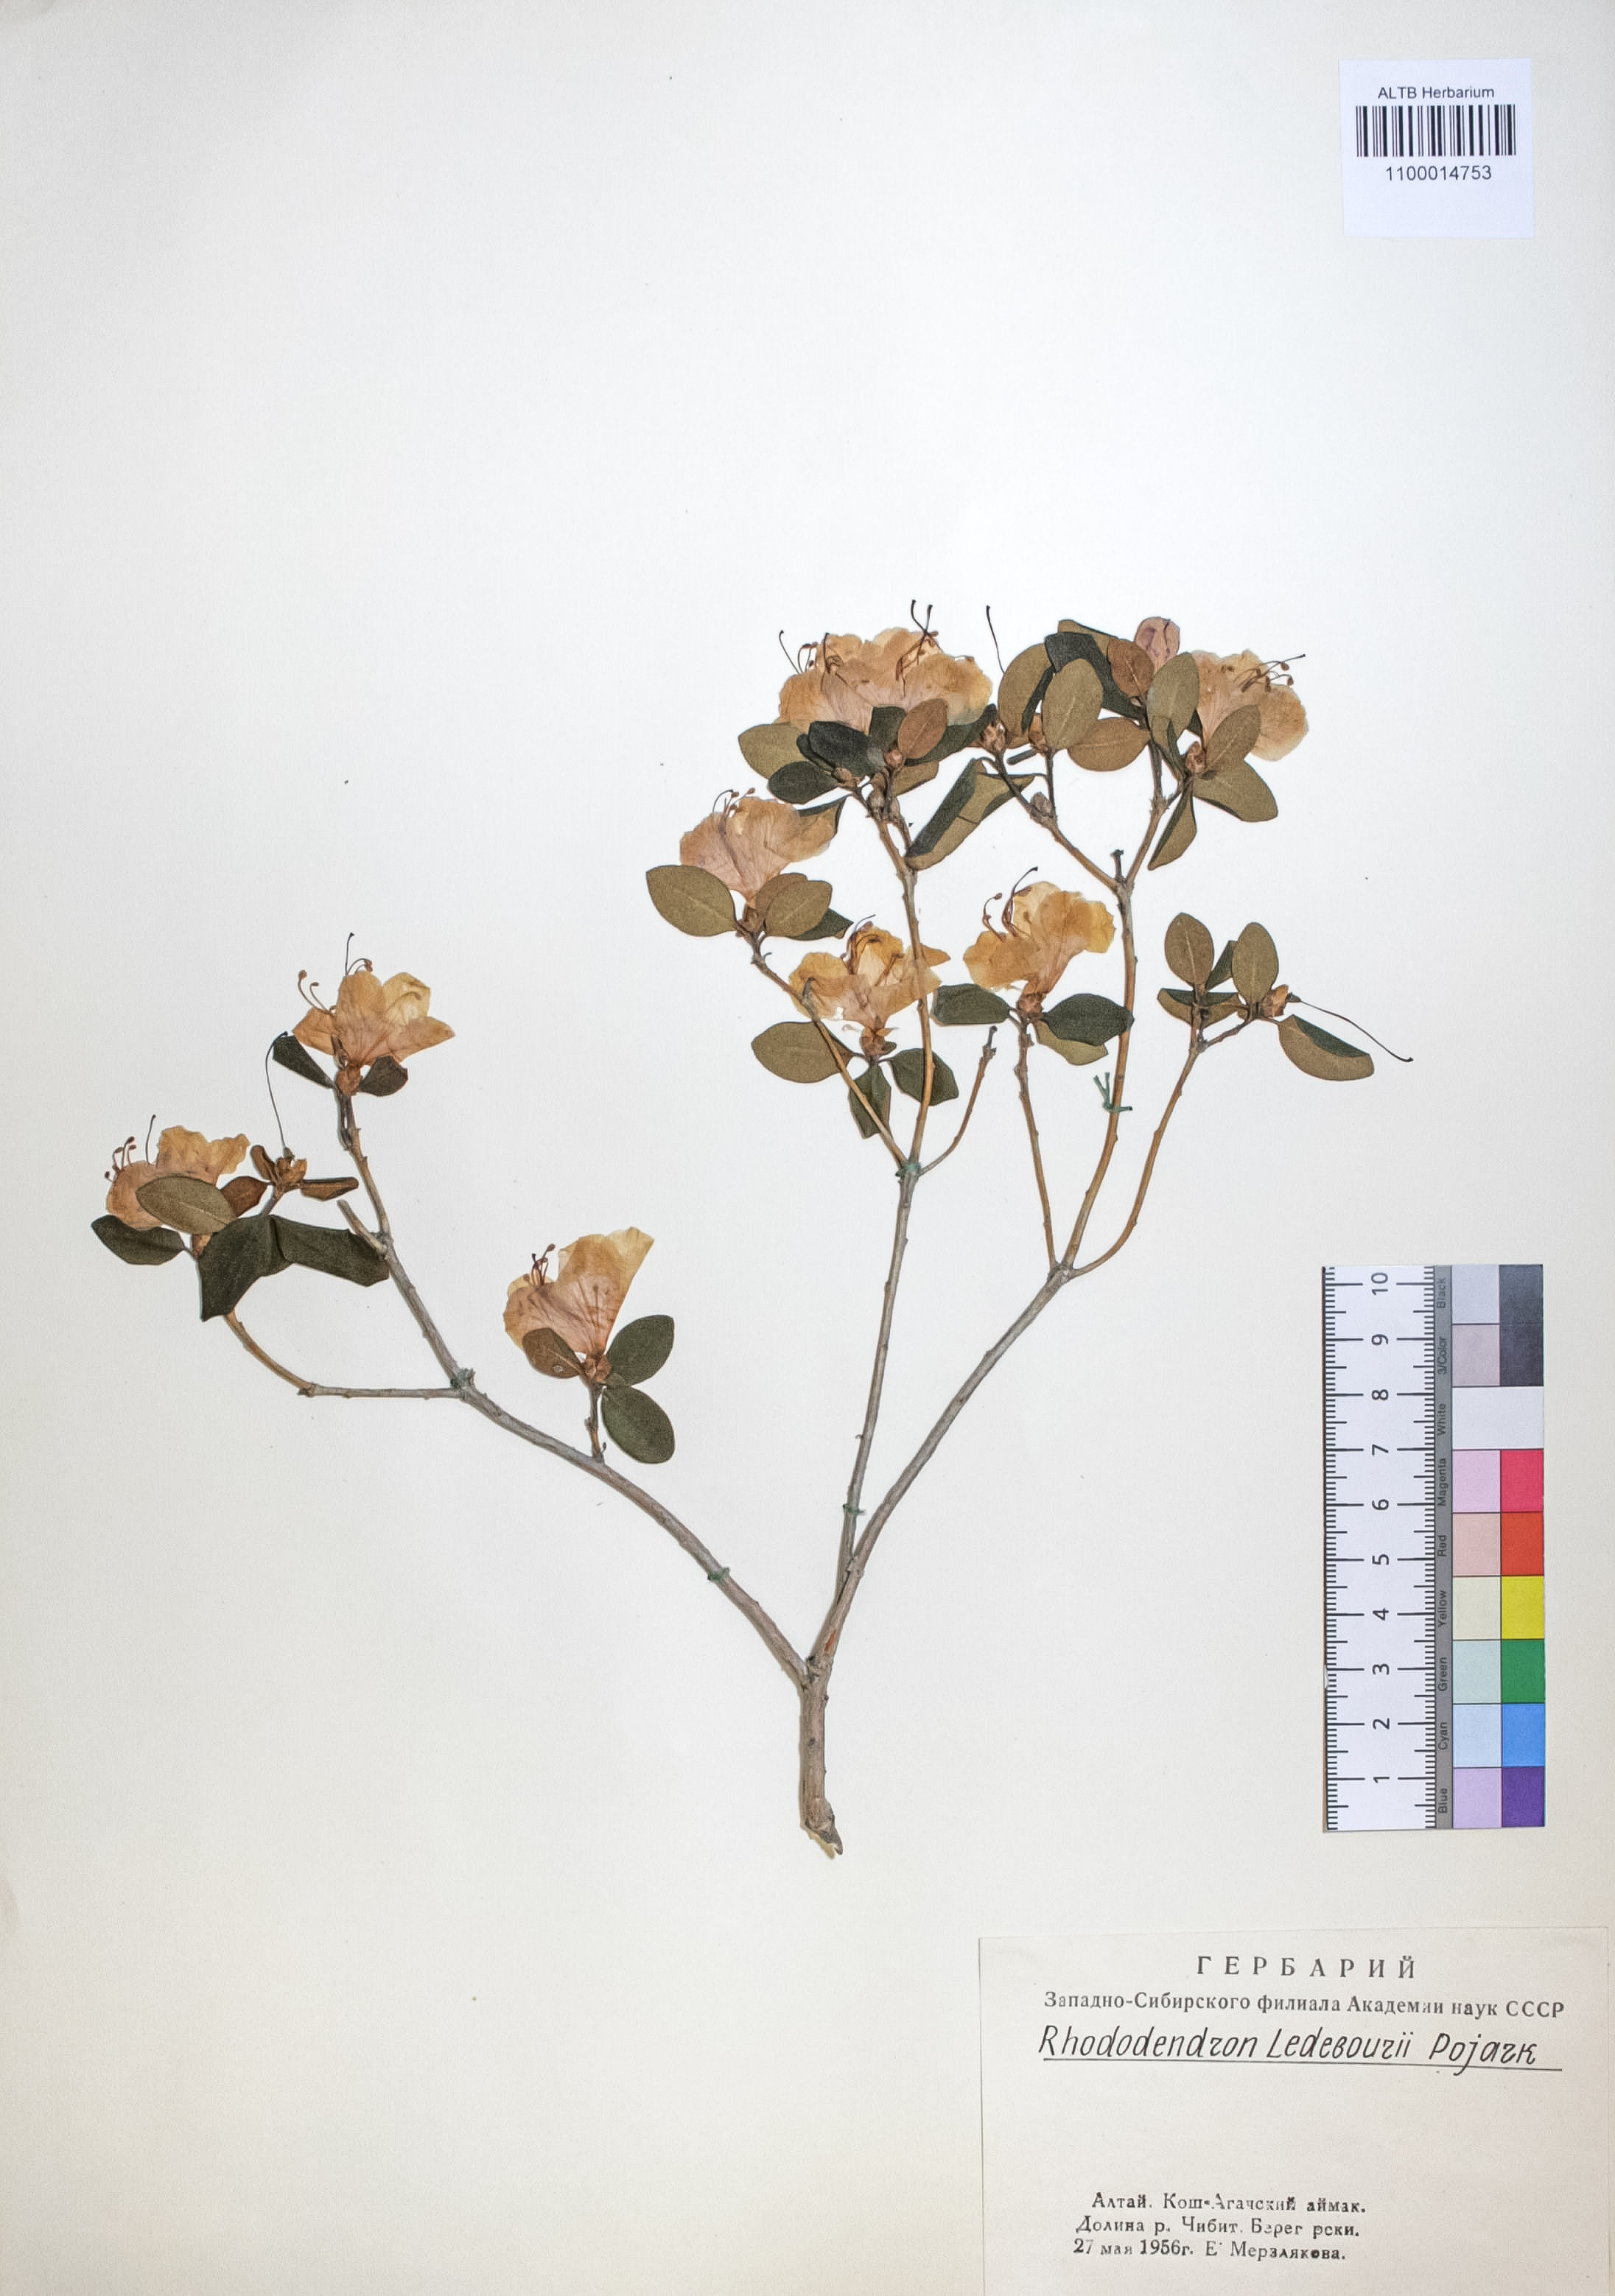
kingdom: Plantae
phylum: Tracheophyta
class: Magnoliopsida
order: Ericales
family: Ericaceae
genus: Rhododendron
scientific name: Rhododendron dauricum
